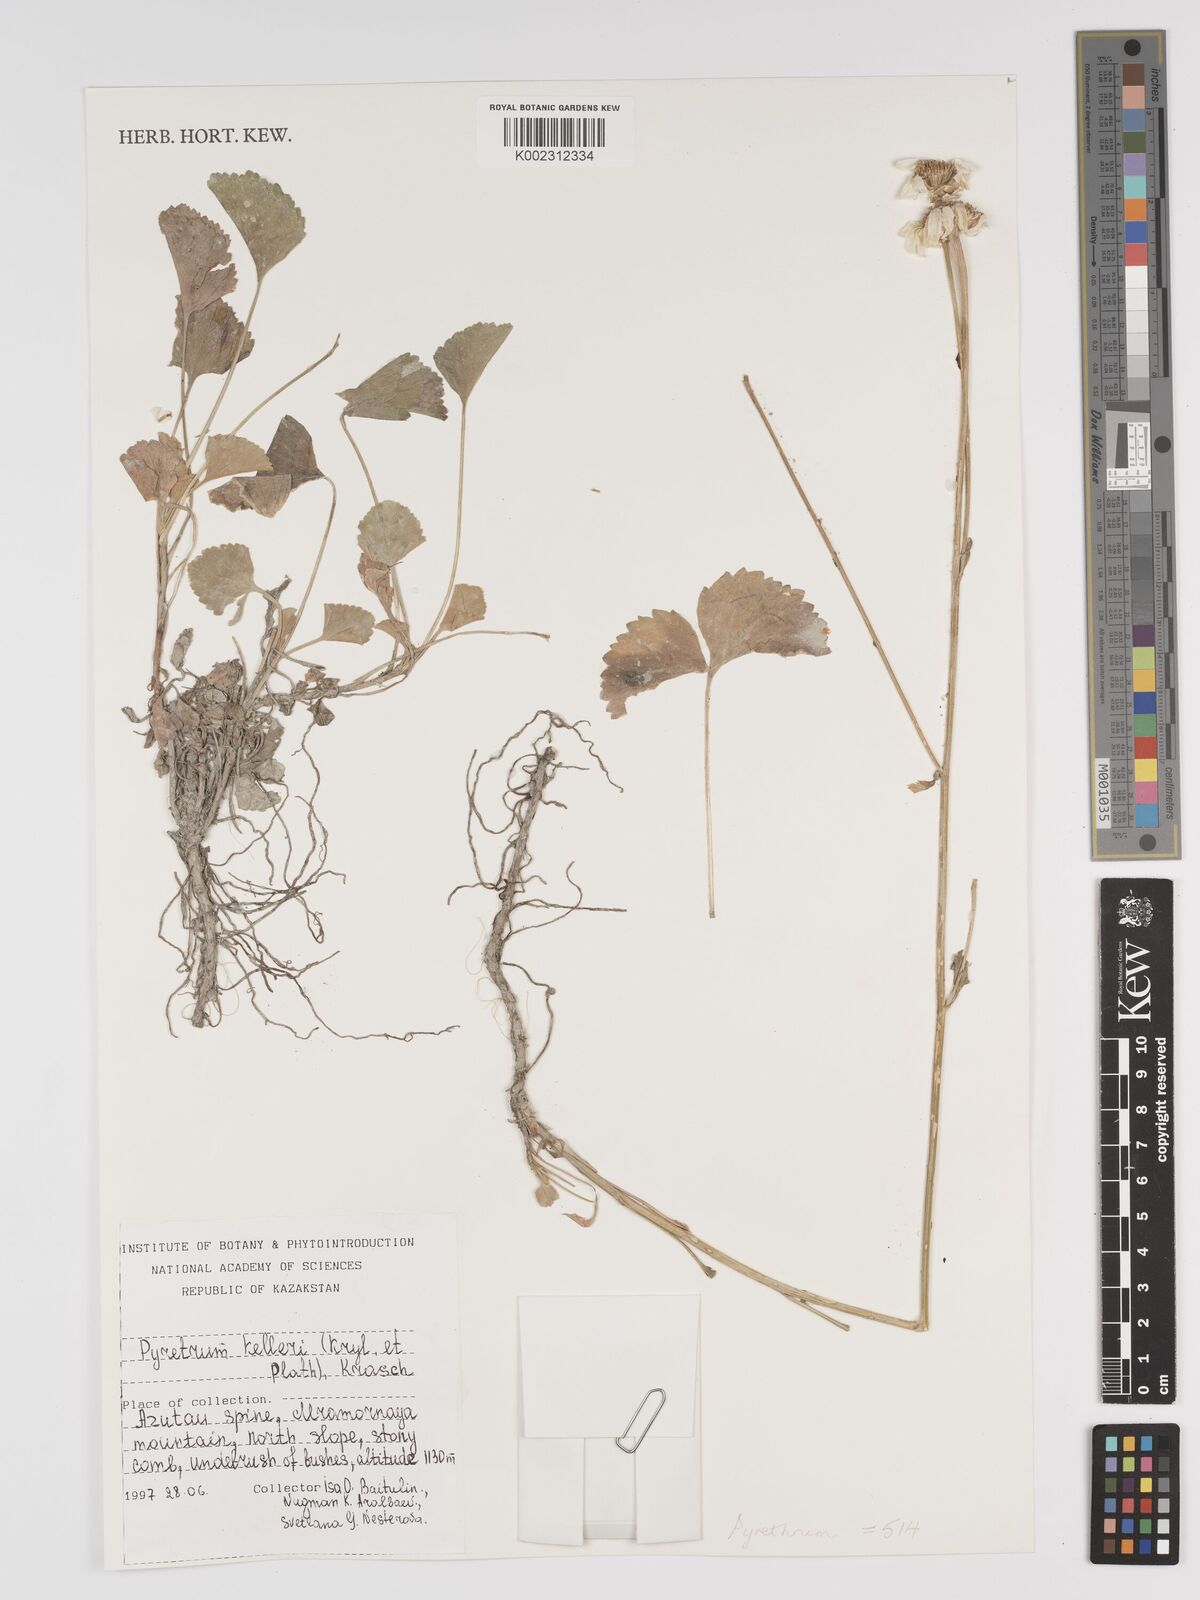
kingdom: Plantae
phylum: Tracheophyta
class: Magnoliopsida
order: Asterales
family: Asteraceae
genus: Tanacetum
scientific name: Tanacetum kelleri
